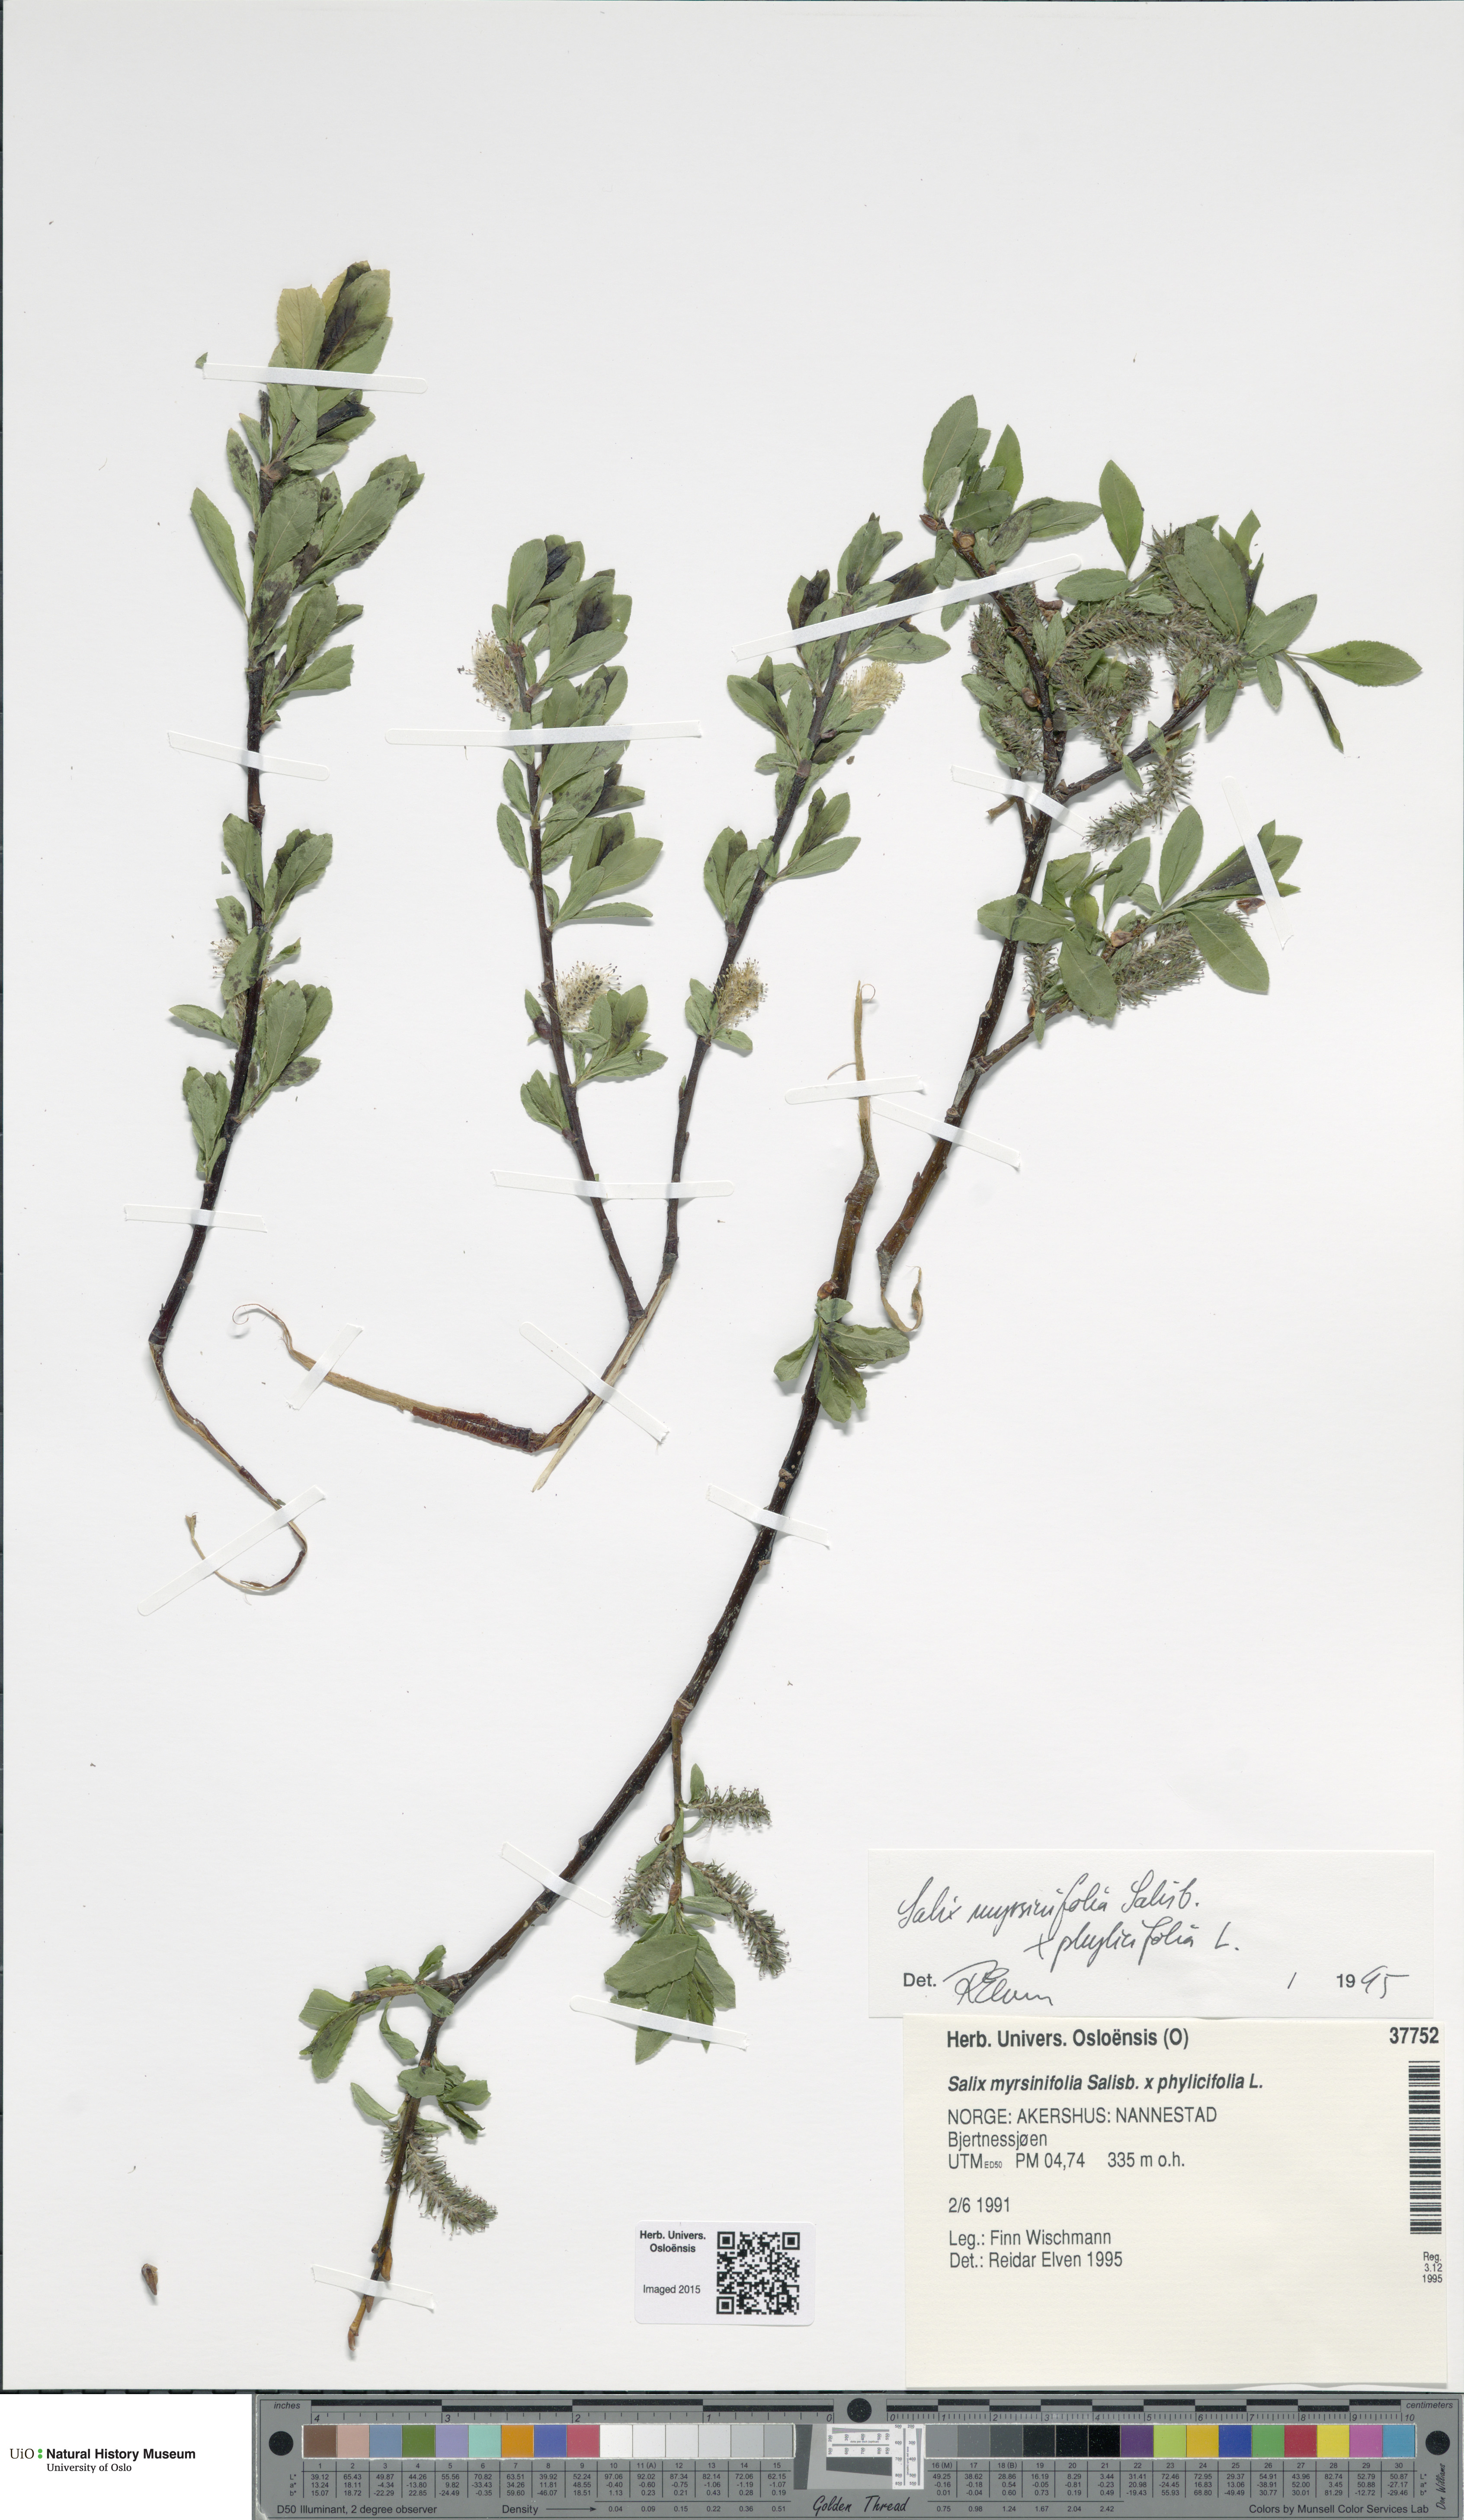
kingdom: Plantae
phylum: Tracheophyta
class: Magnoliopsida
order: Malpighiales
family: Salicaceae
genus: Salix
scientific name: Salix
